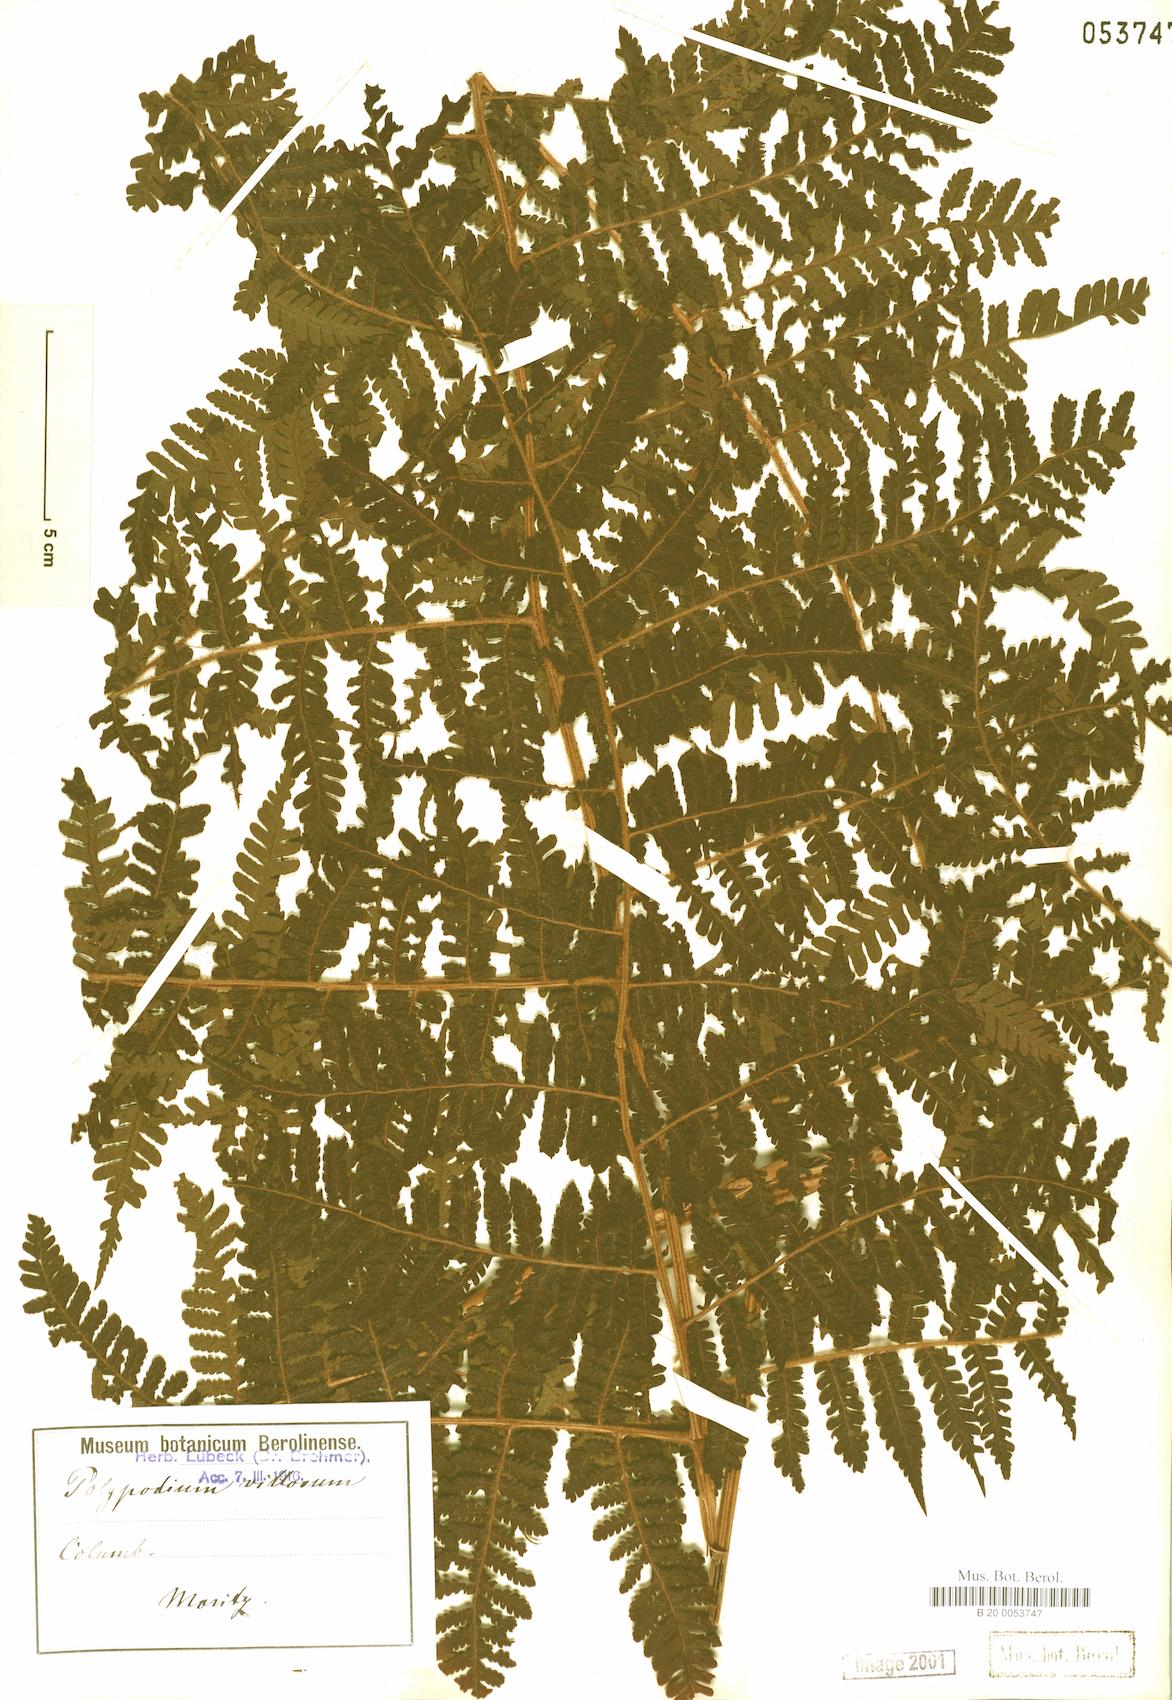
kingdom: Plantae
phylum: Tracheophyta
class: Polypodiopsida
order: Polypodiales
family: Dryopteridaceae
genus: Megalastrum
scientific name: Megalastrum villosum
